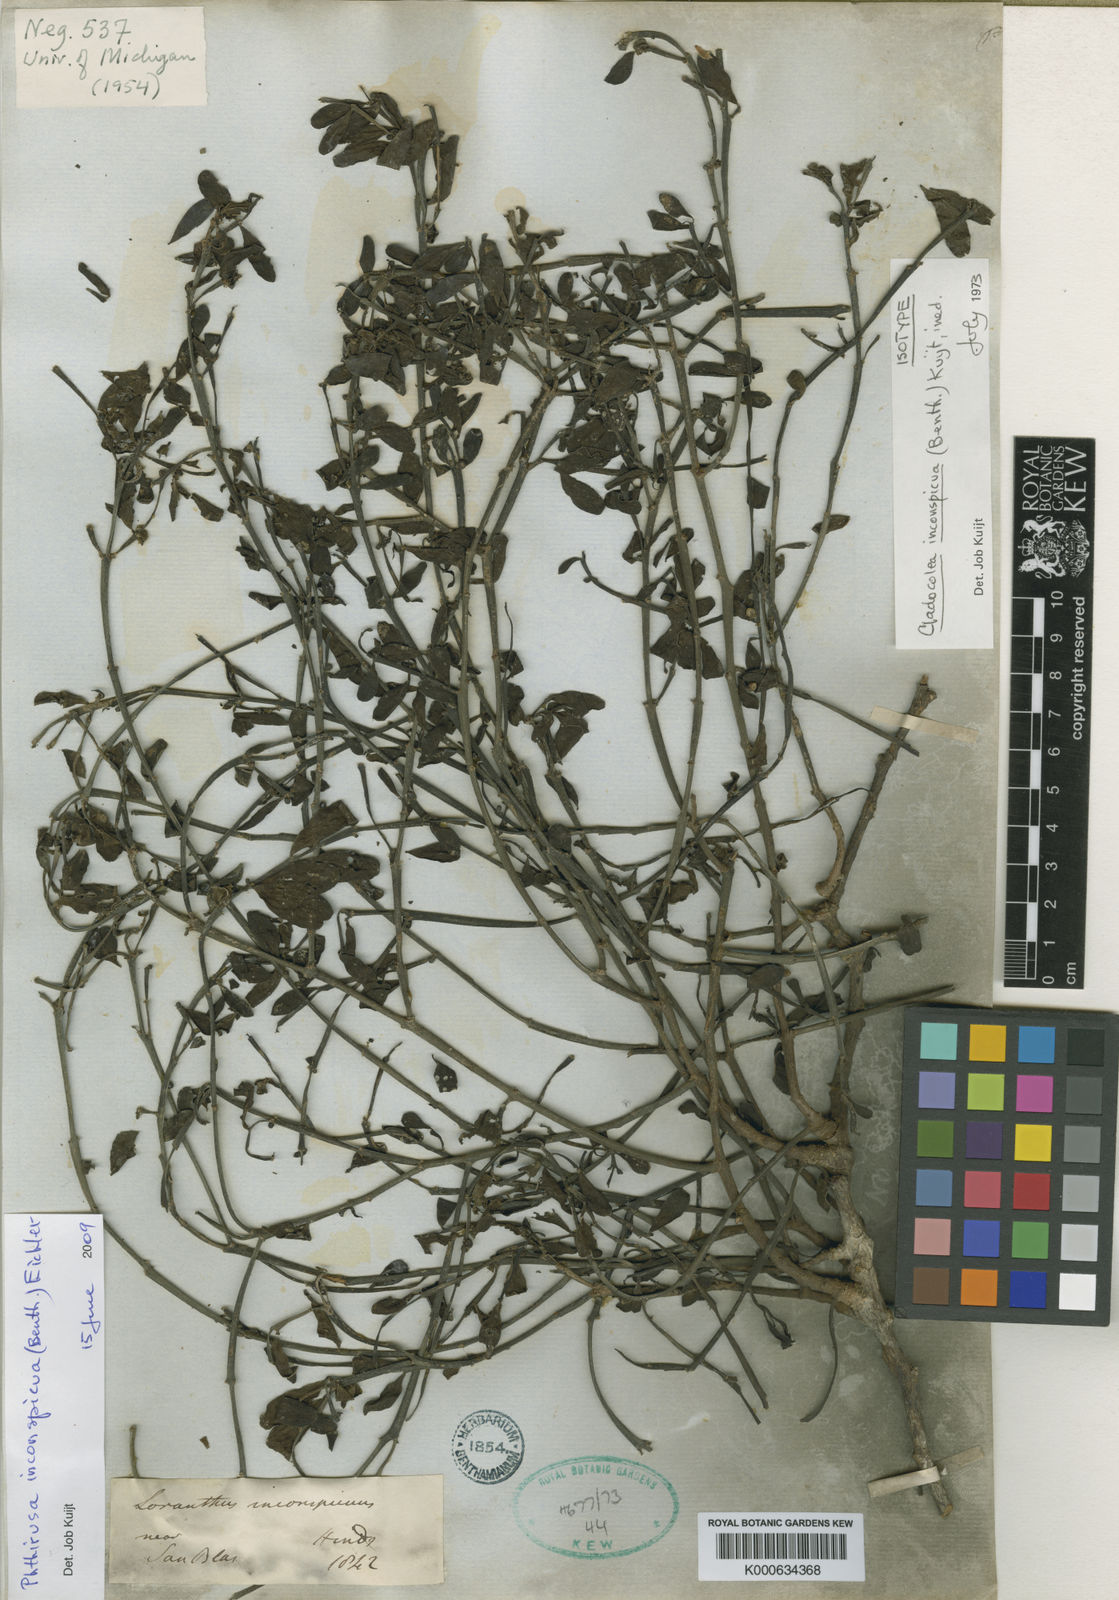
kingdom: Plantae
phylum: Tracheophyta
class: Magnoliopsida
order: Santalales
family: Loranthaceae
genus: Phthirusa
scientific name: Phthirusa inconspicua
